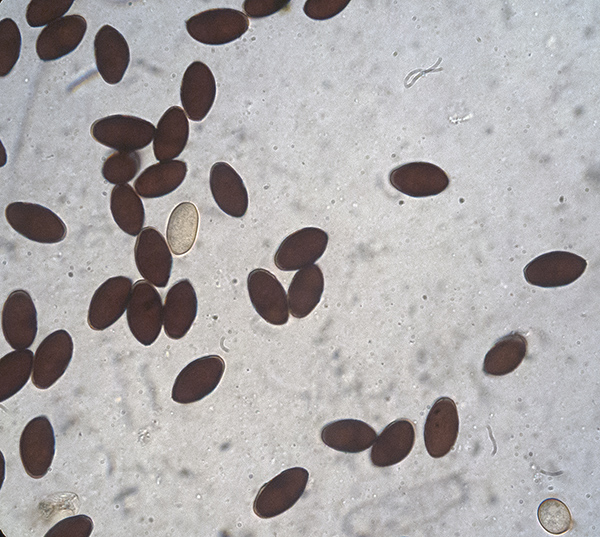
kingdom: Fungi
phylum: Basidiomycota
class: Agaricomycetes
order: Agaricales
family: Psathyrellaceae
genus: Coprinopsis
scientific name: Coprinopsis martinii
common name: rigkær-blækhat
